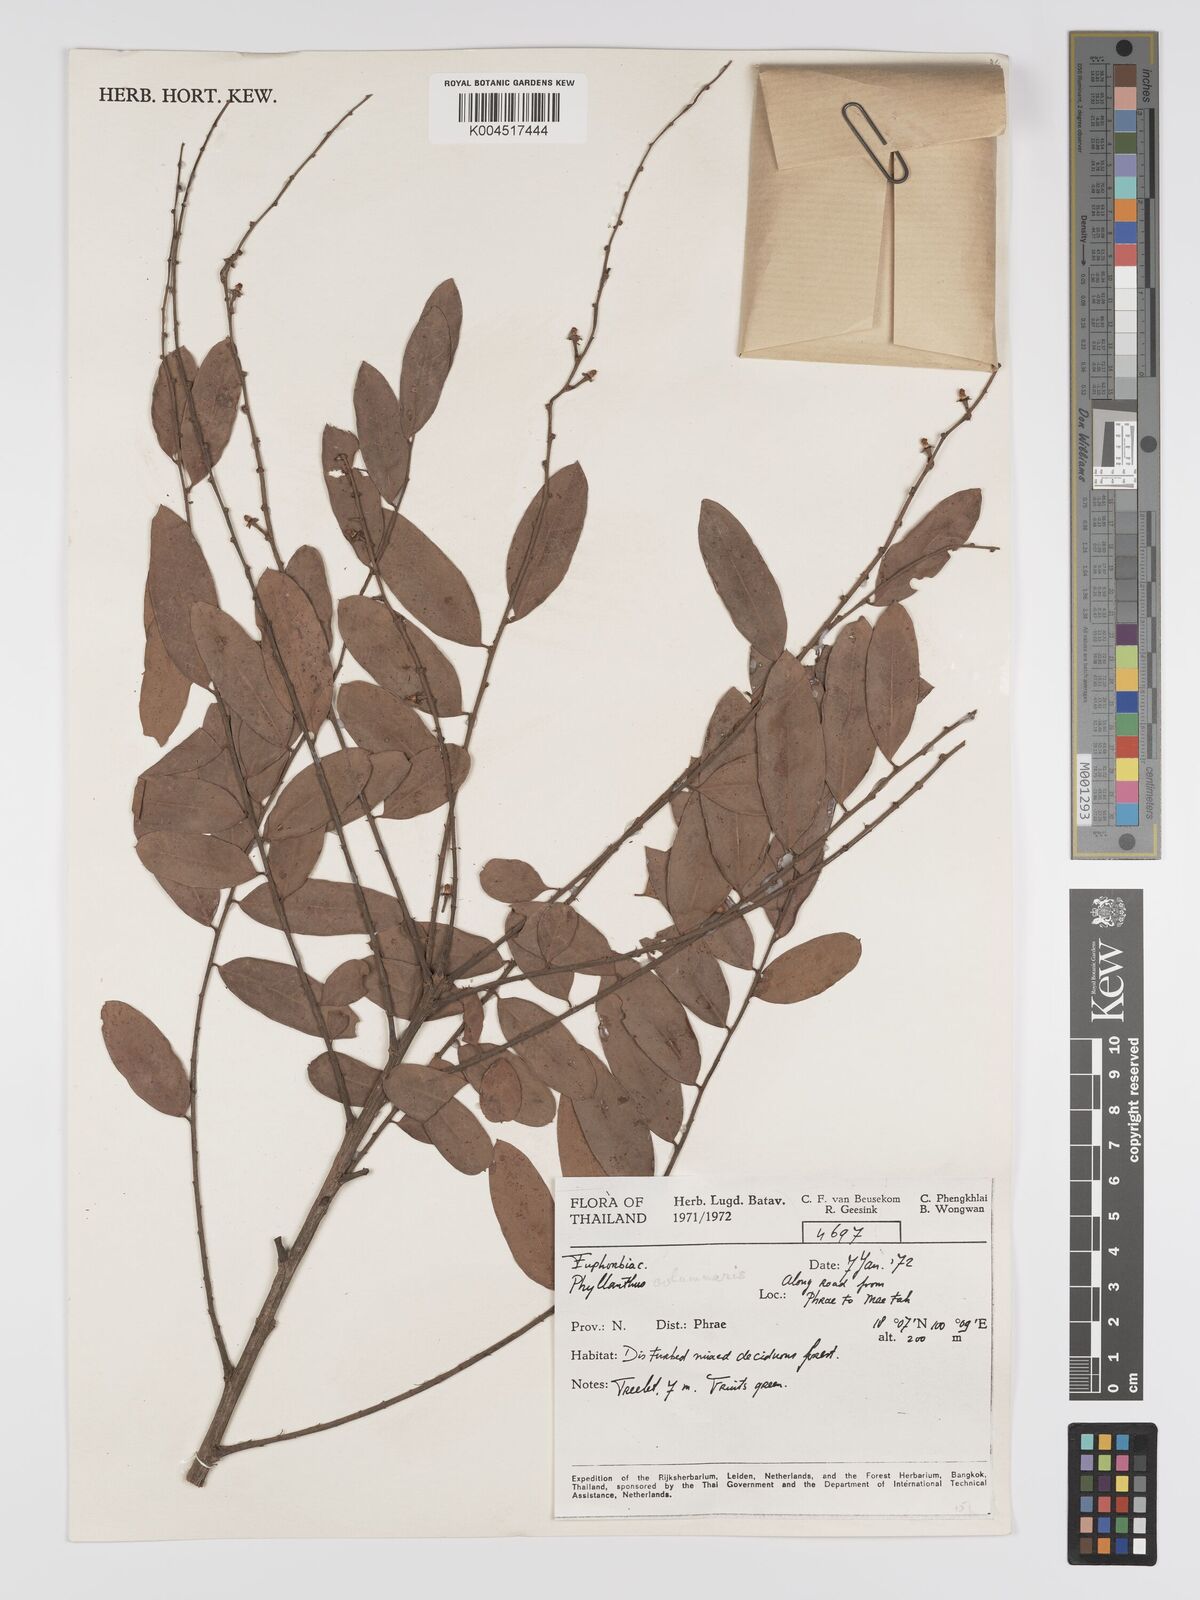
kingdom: Plantae
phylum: Tracheophyta
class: Magnoliopsida
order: Malpighiales
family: Phyllanthaceae
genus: Phyllanthus
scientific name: Phyllanthus
